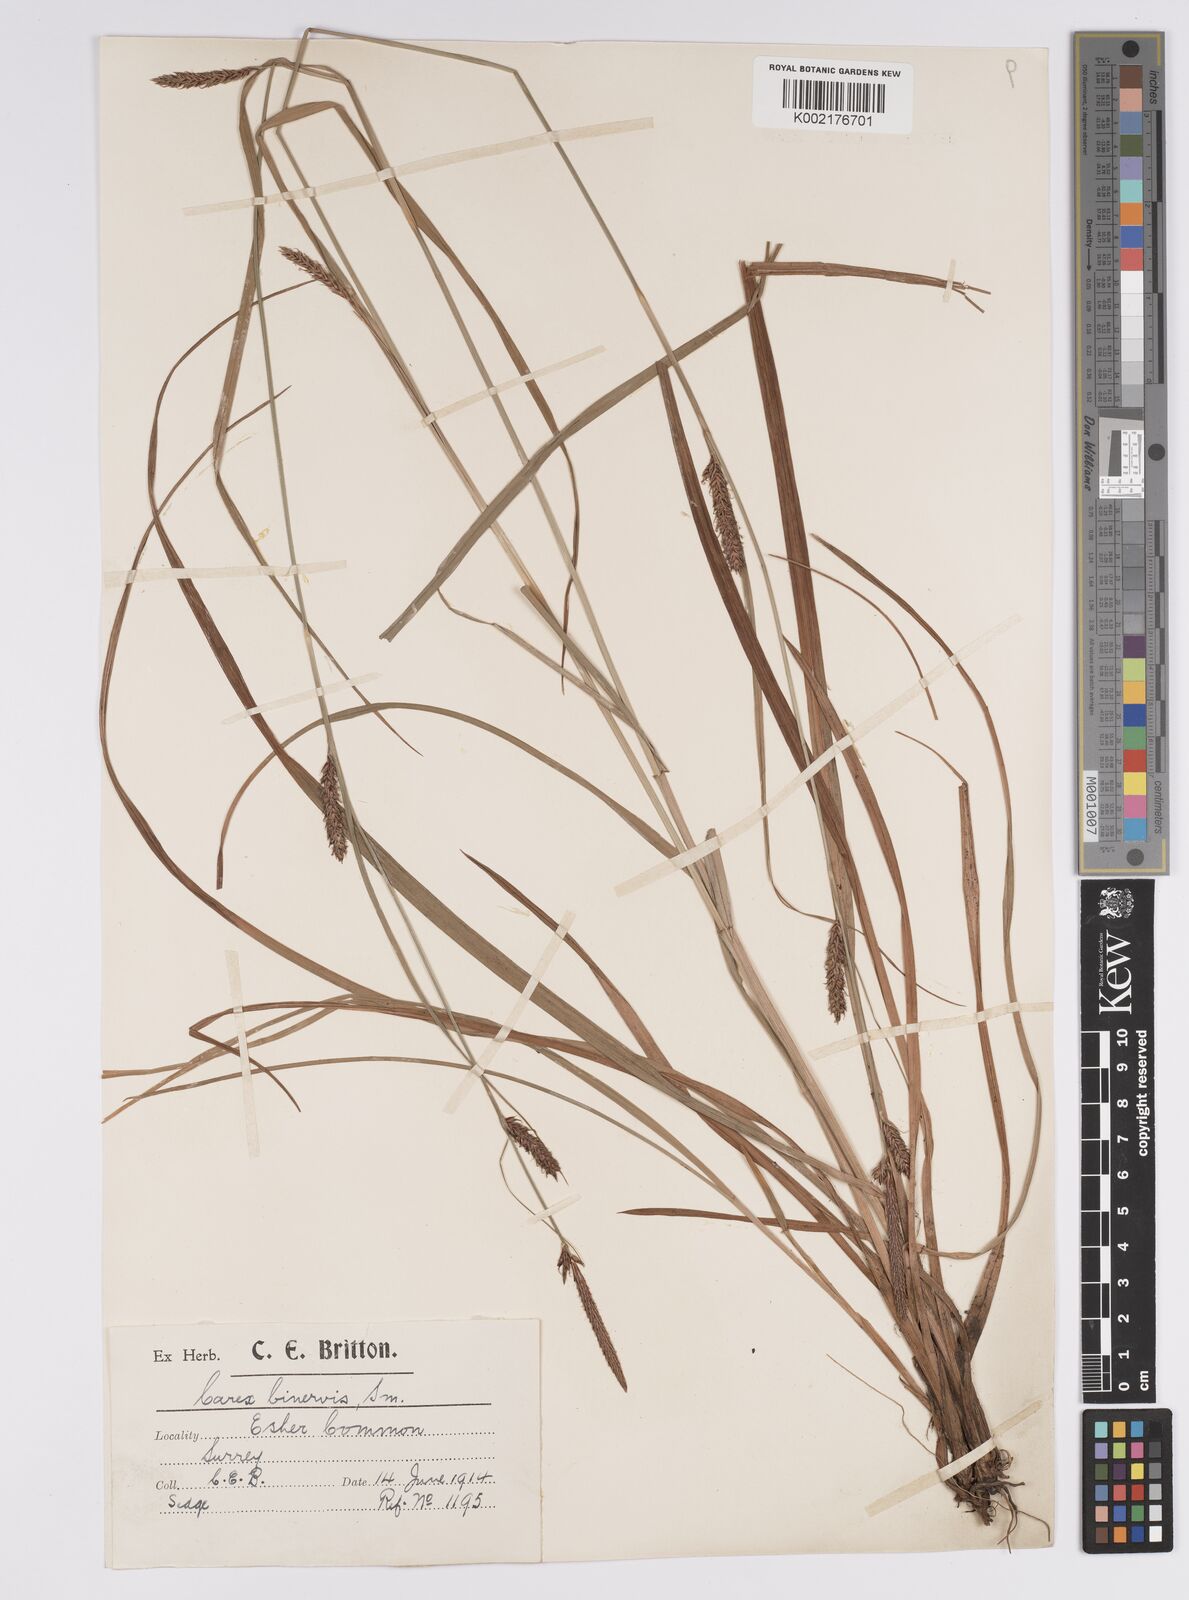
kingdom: Plantae
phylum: Tracheophyta
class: Liliopsida
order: Poales
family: Cyperaceae
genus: Carex
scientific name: Carex binervis
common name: Green-ribbed sedge
